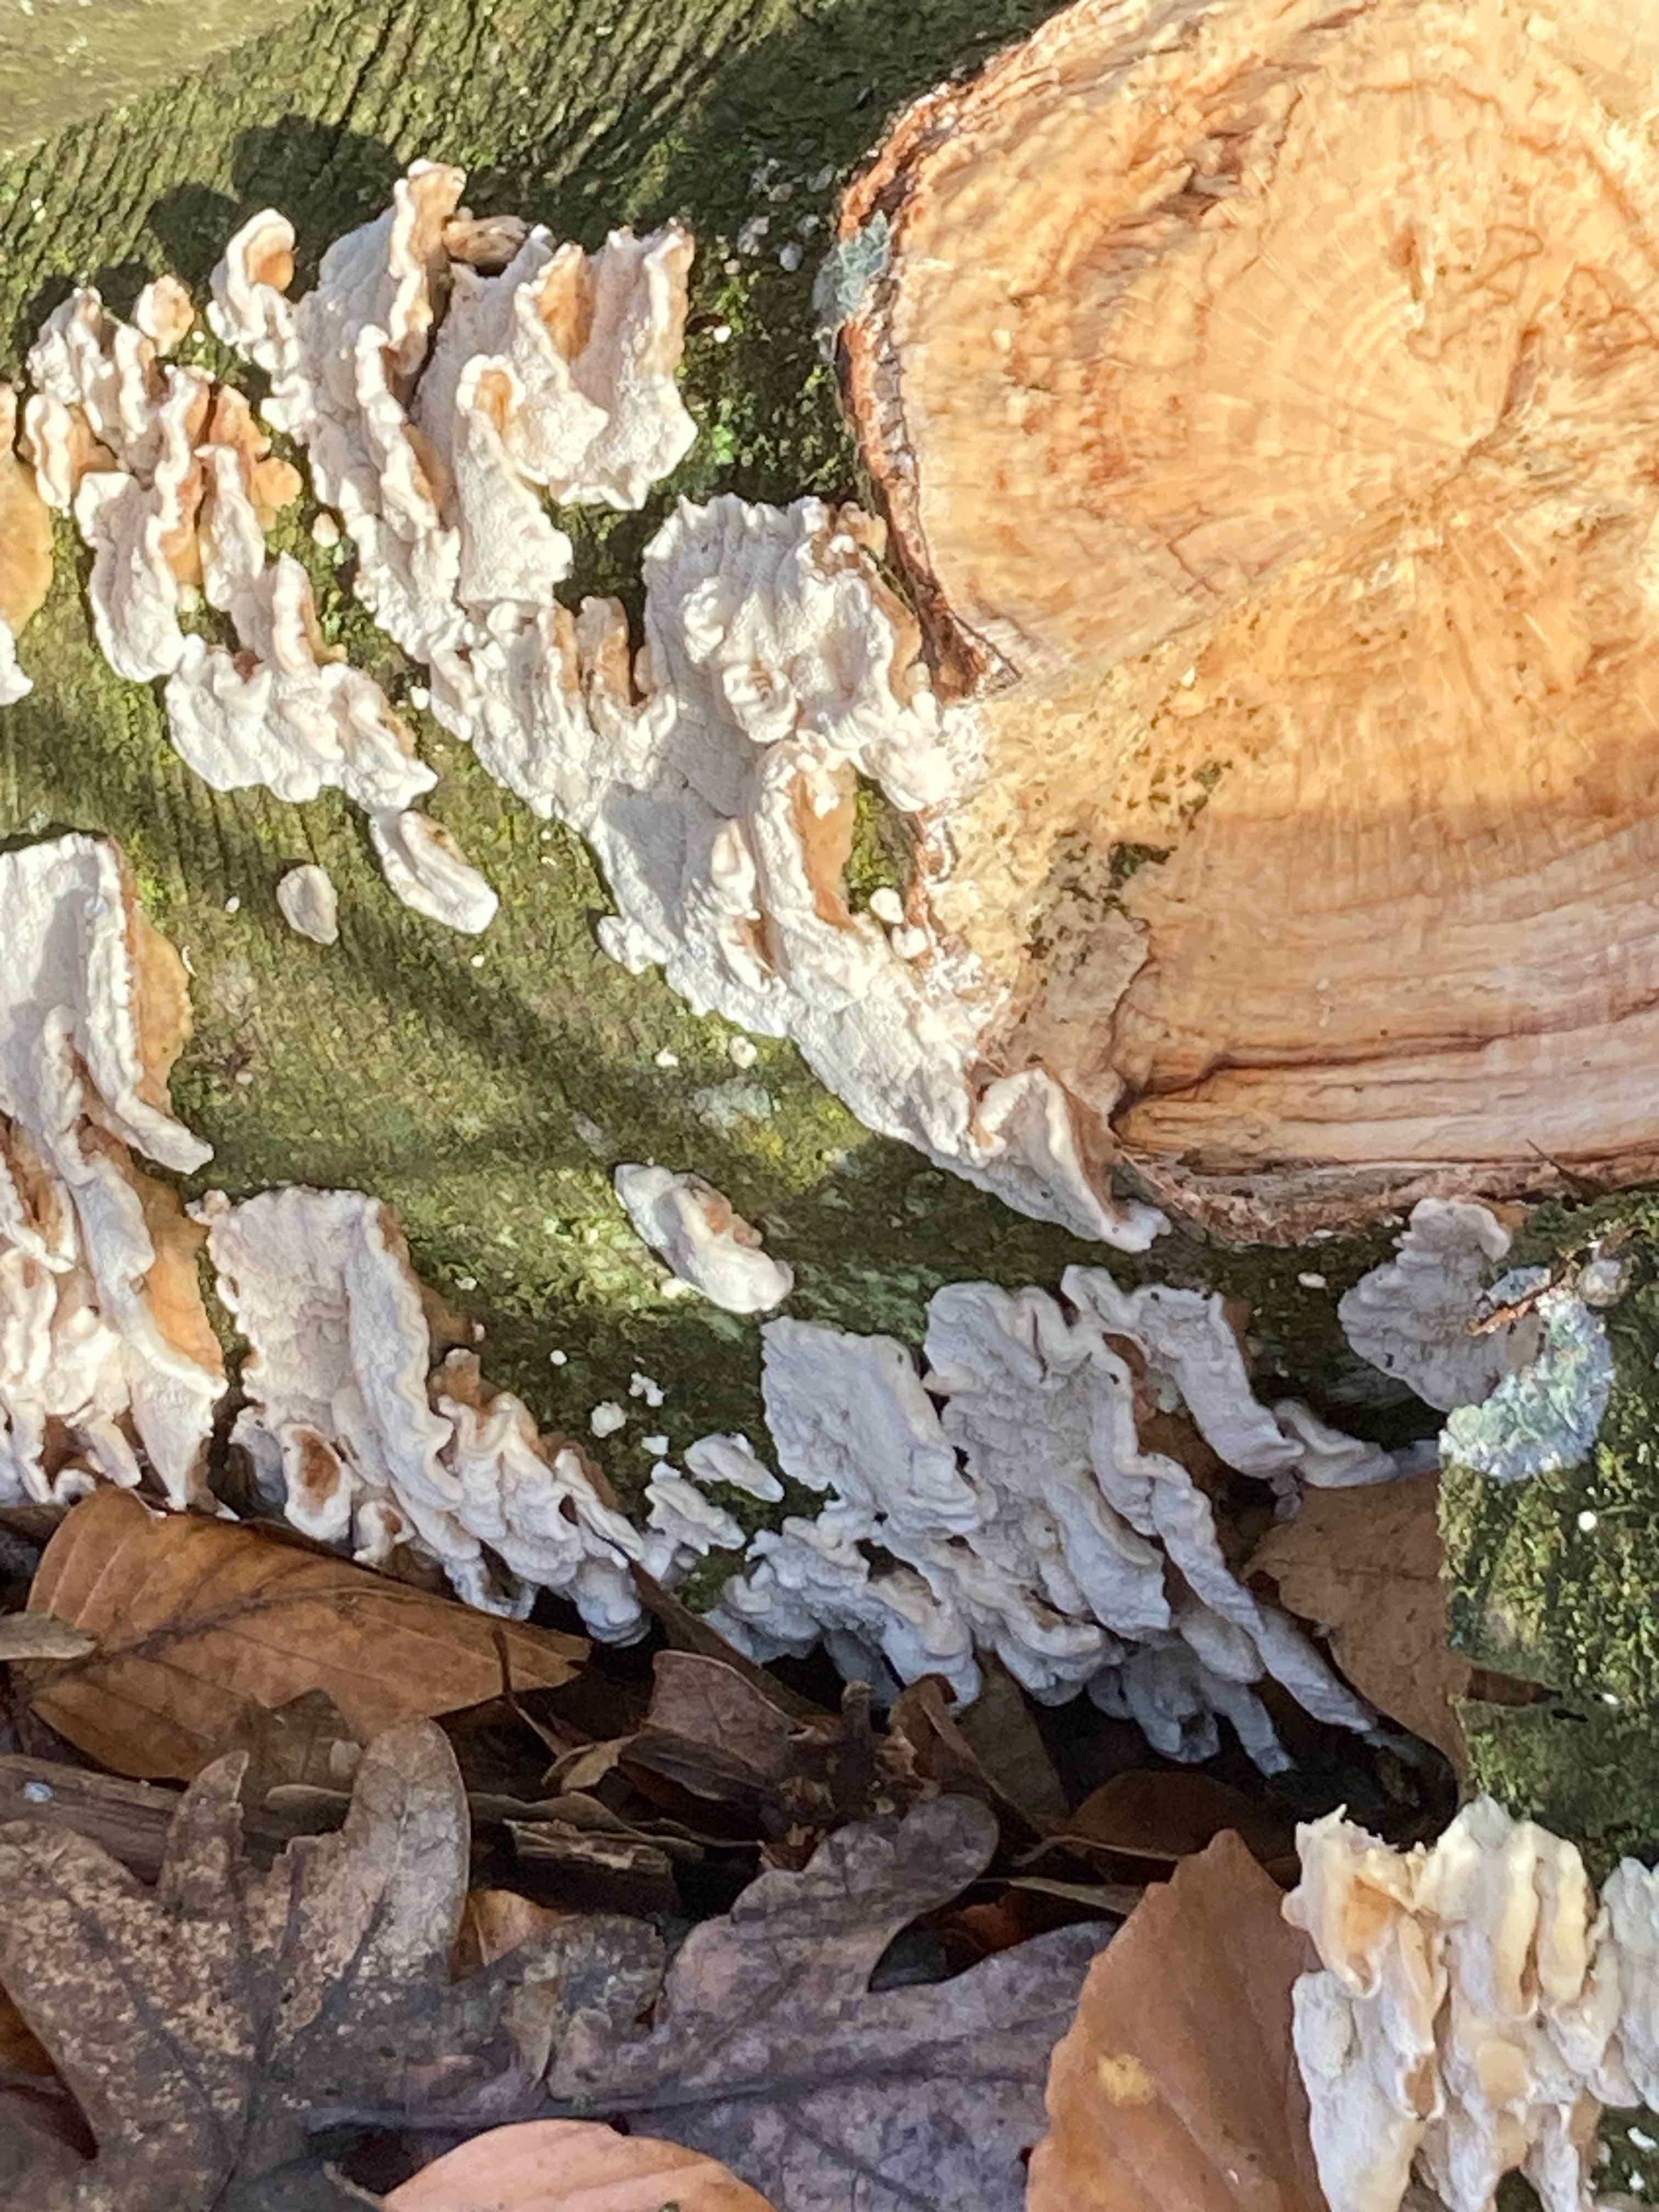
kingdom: Fungi
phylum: Basidiomycota
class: Agaricomycetes
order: Polyporales
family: Polyporaceae
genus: Trametes
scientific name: Trametes
